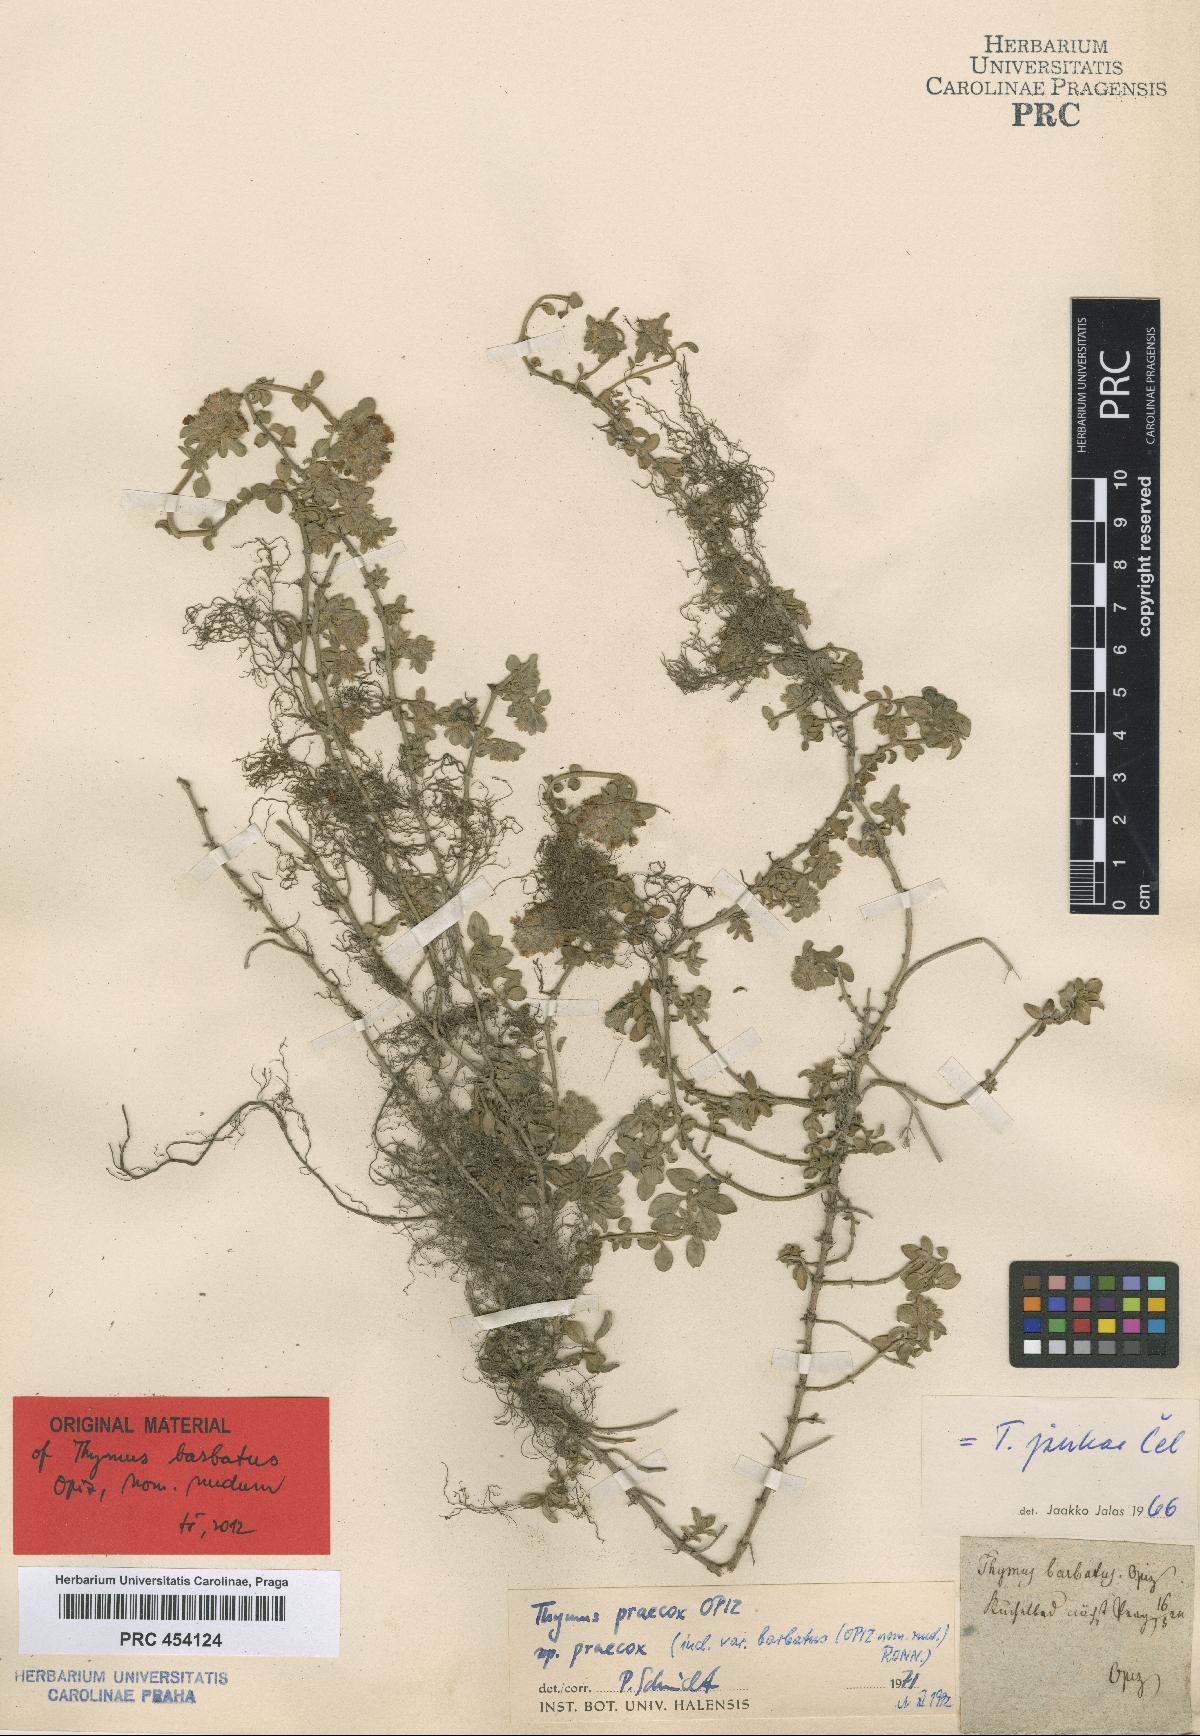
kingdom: Plantae
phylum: Tracheophyta
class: Magnoliopsida
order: Lamiales
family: Lamiaceae
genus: Thymus
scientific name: Thymus praecox
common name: Wild thyme
